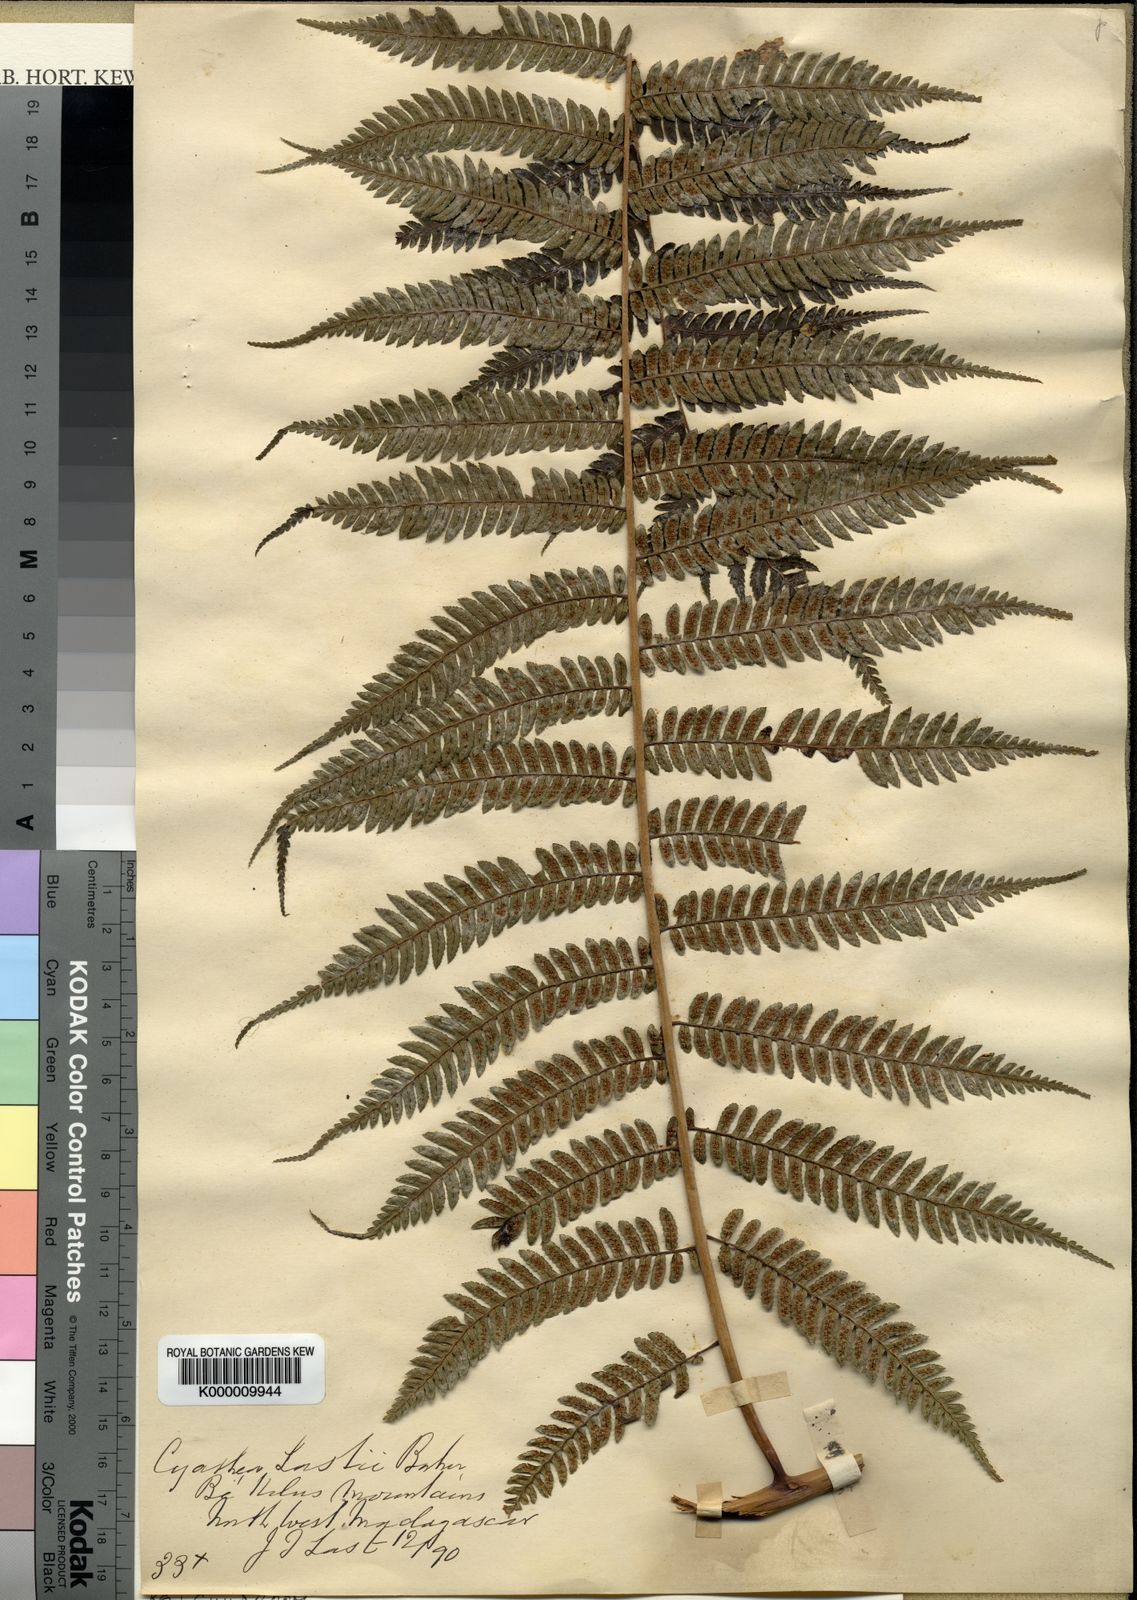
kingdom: Plantae
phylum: Tracheophyta
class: Polypodiopsida
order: Cyatheales
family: Cyatheaceae
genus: Alsophila
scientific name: Alsophila lastii
